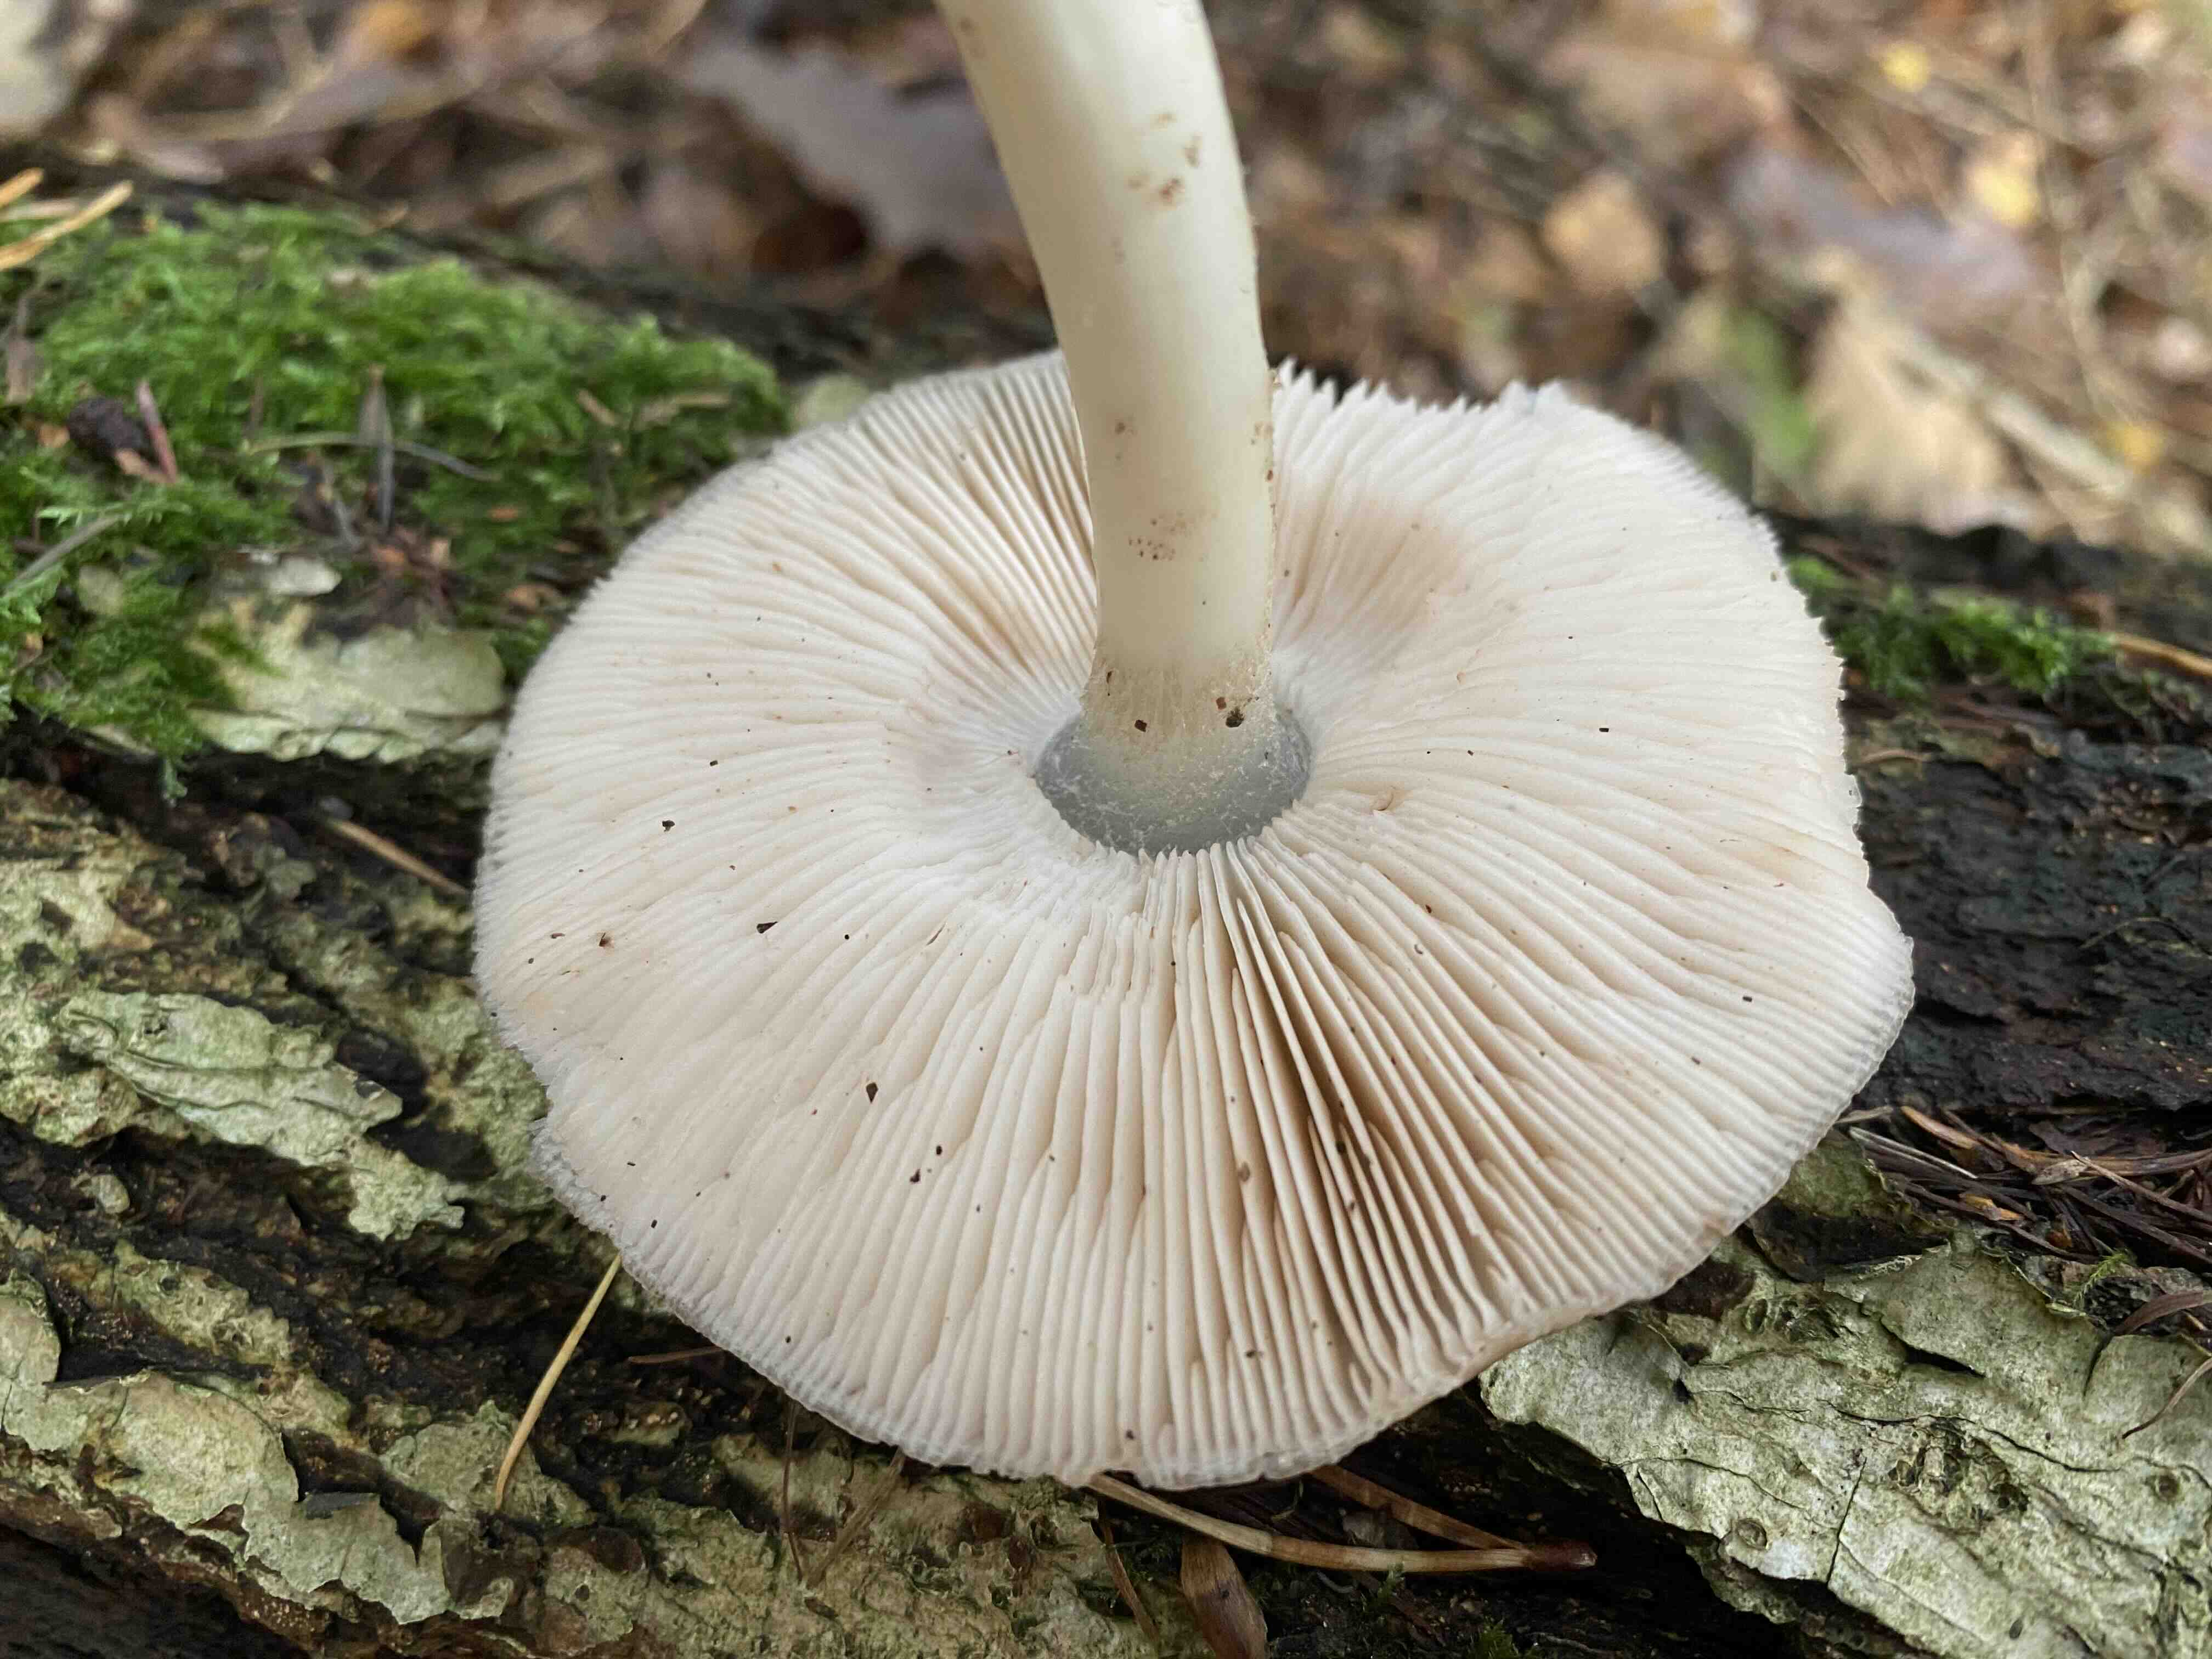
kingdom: Fungi
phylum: Basidiomycota
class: Agaricomycetes
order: Agaricales
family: Pluteaceae
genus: Pluteus
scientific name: Pluteus cervinus
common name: sodfarvet skærmhat
